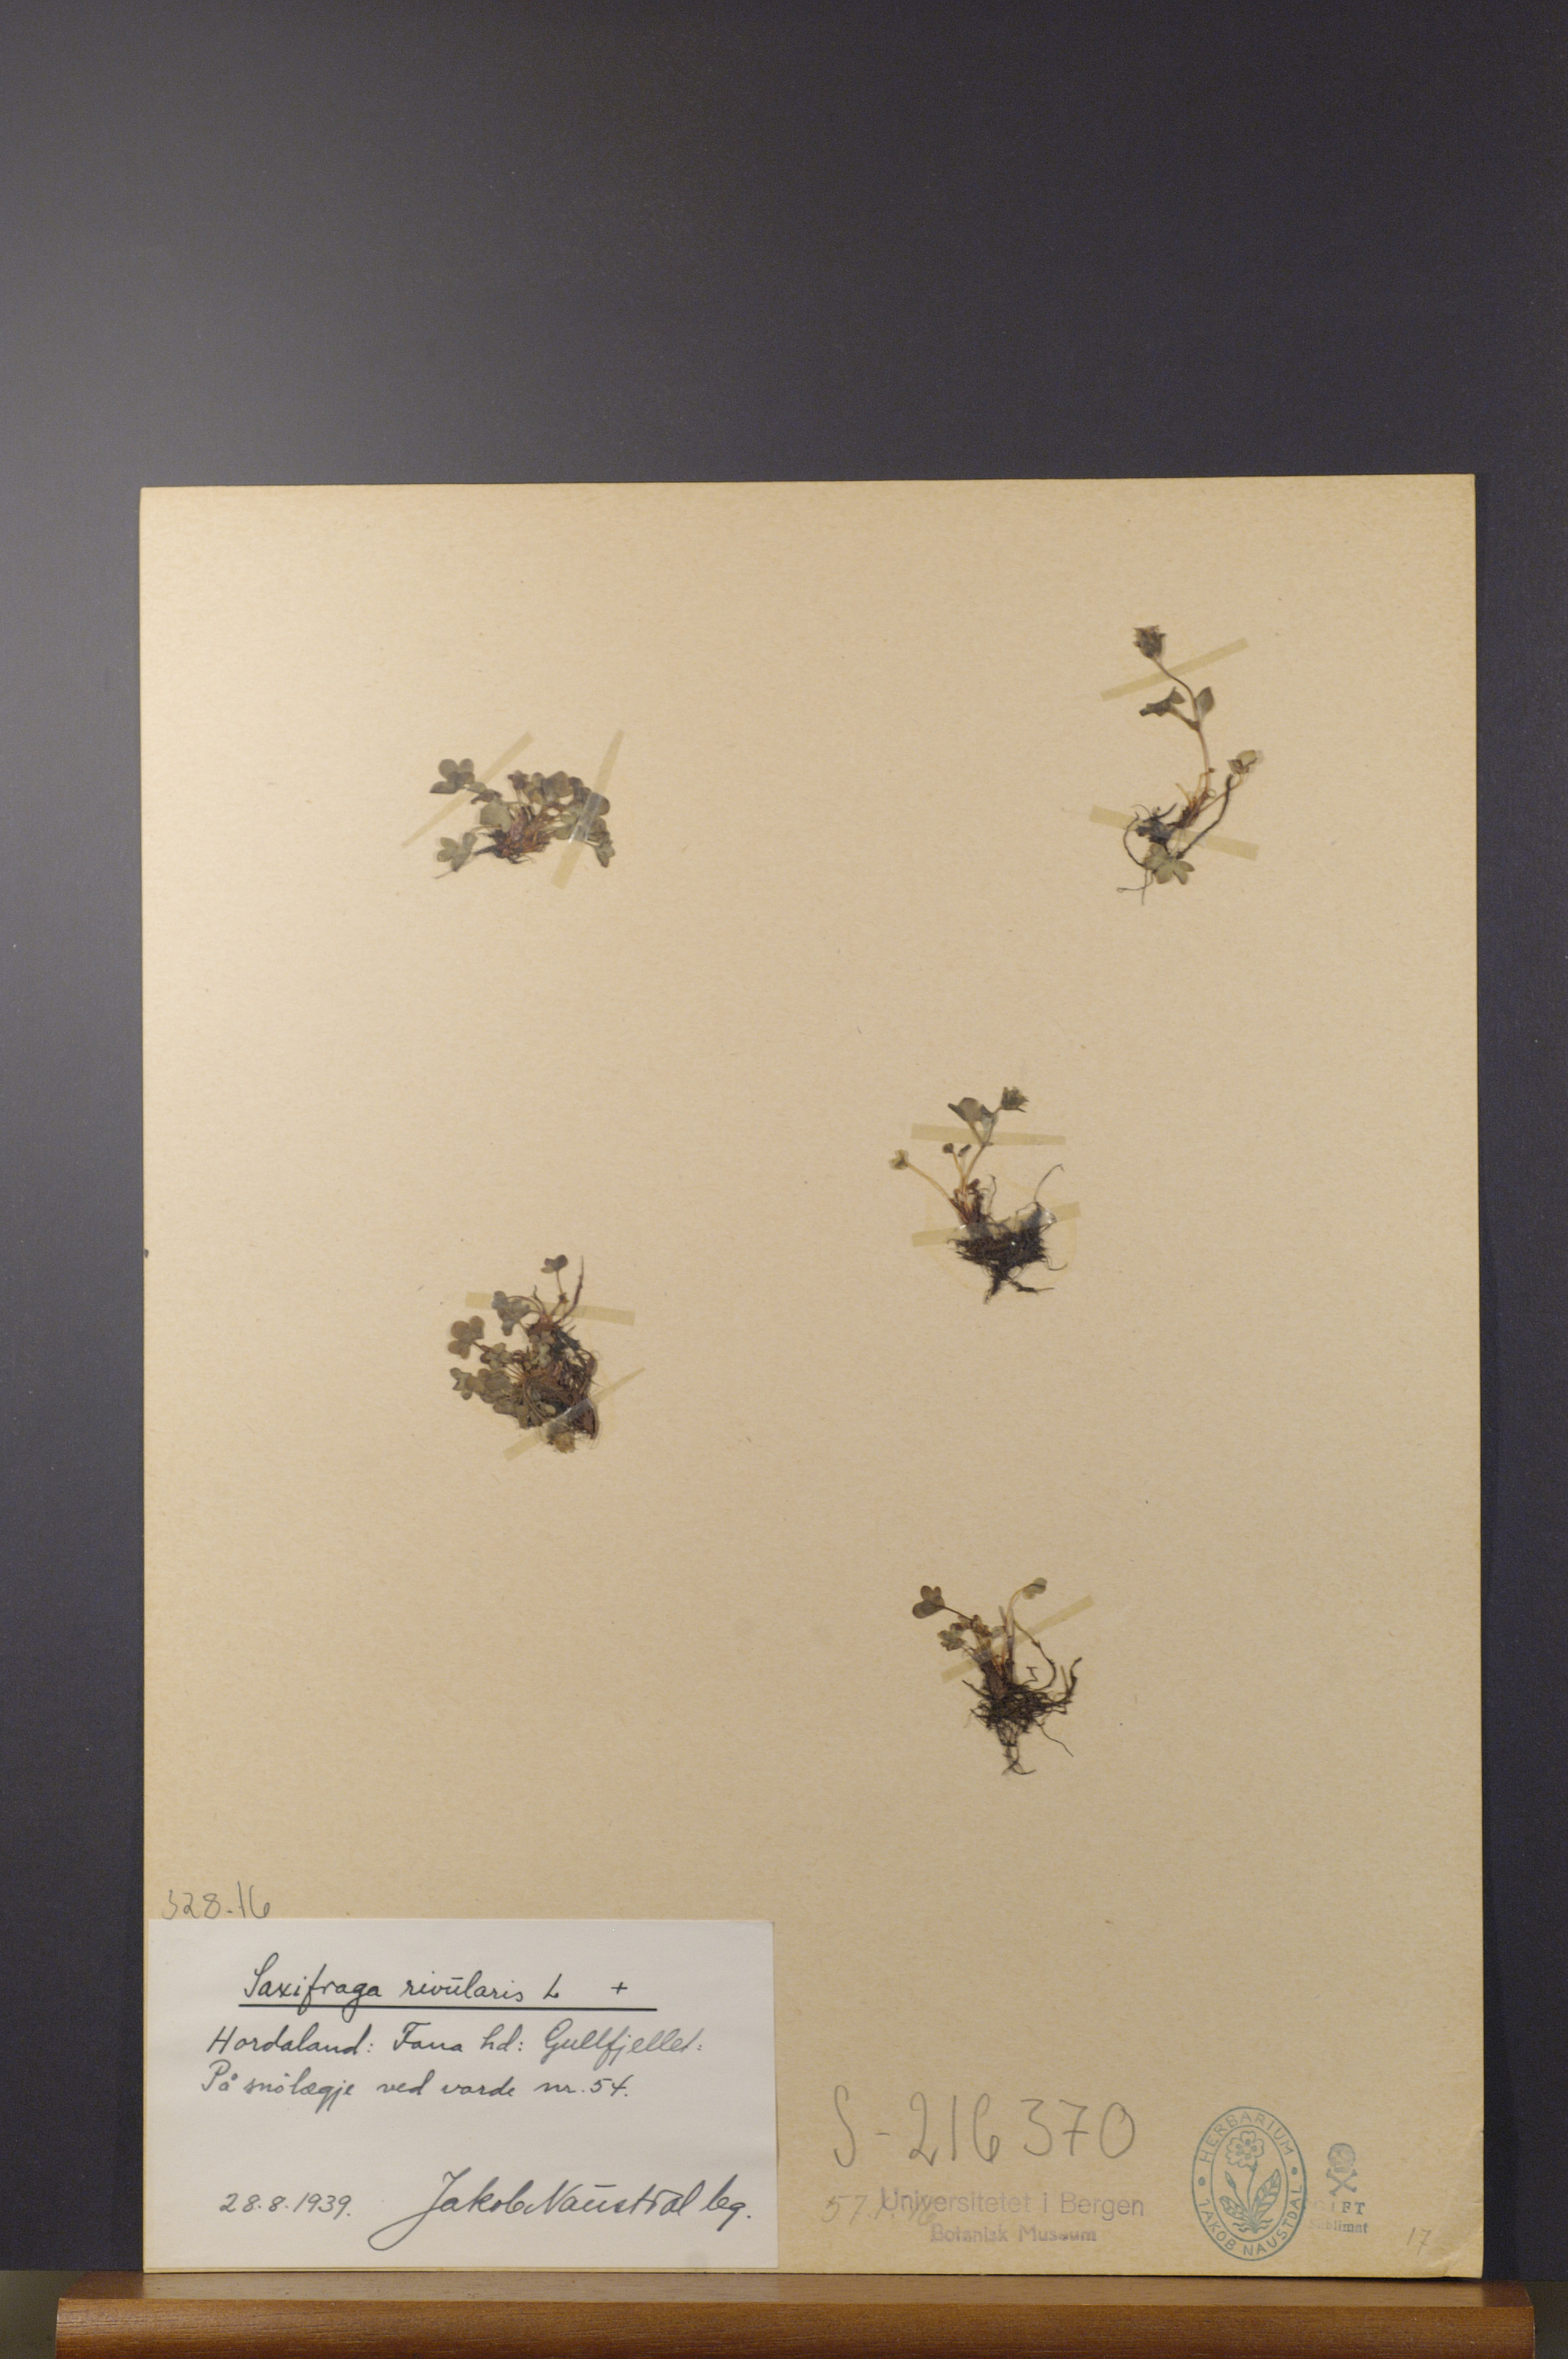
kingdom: Plantae
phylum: Tracheophyta
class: Magnoliopsida
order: Saxifragales
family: Saxifragaceae
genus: Saxifraga
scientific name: Saxifraga rivularis
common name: Highland saxifrage
